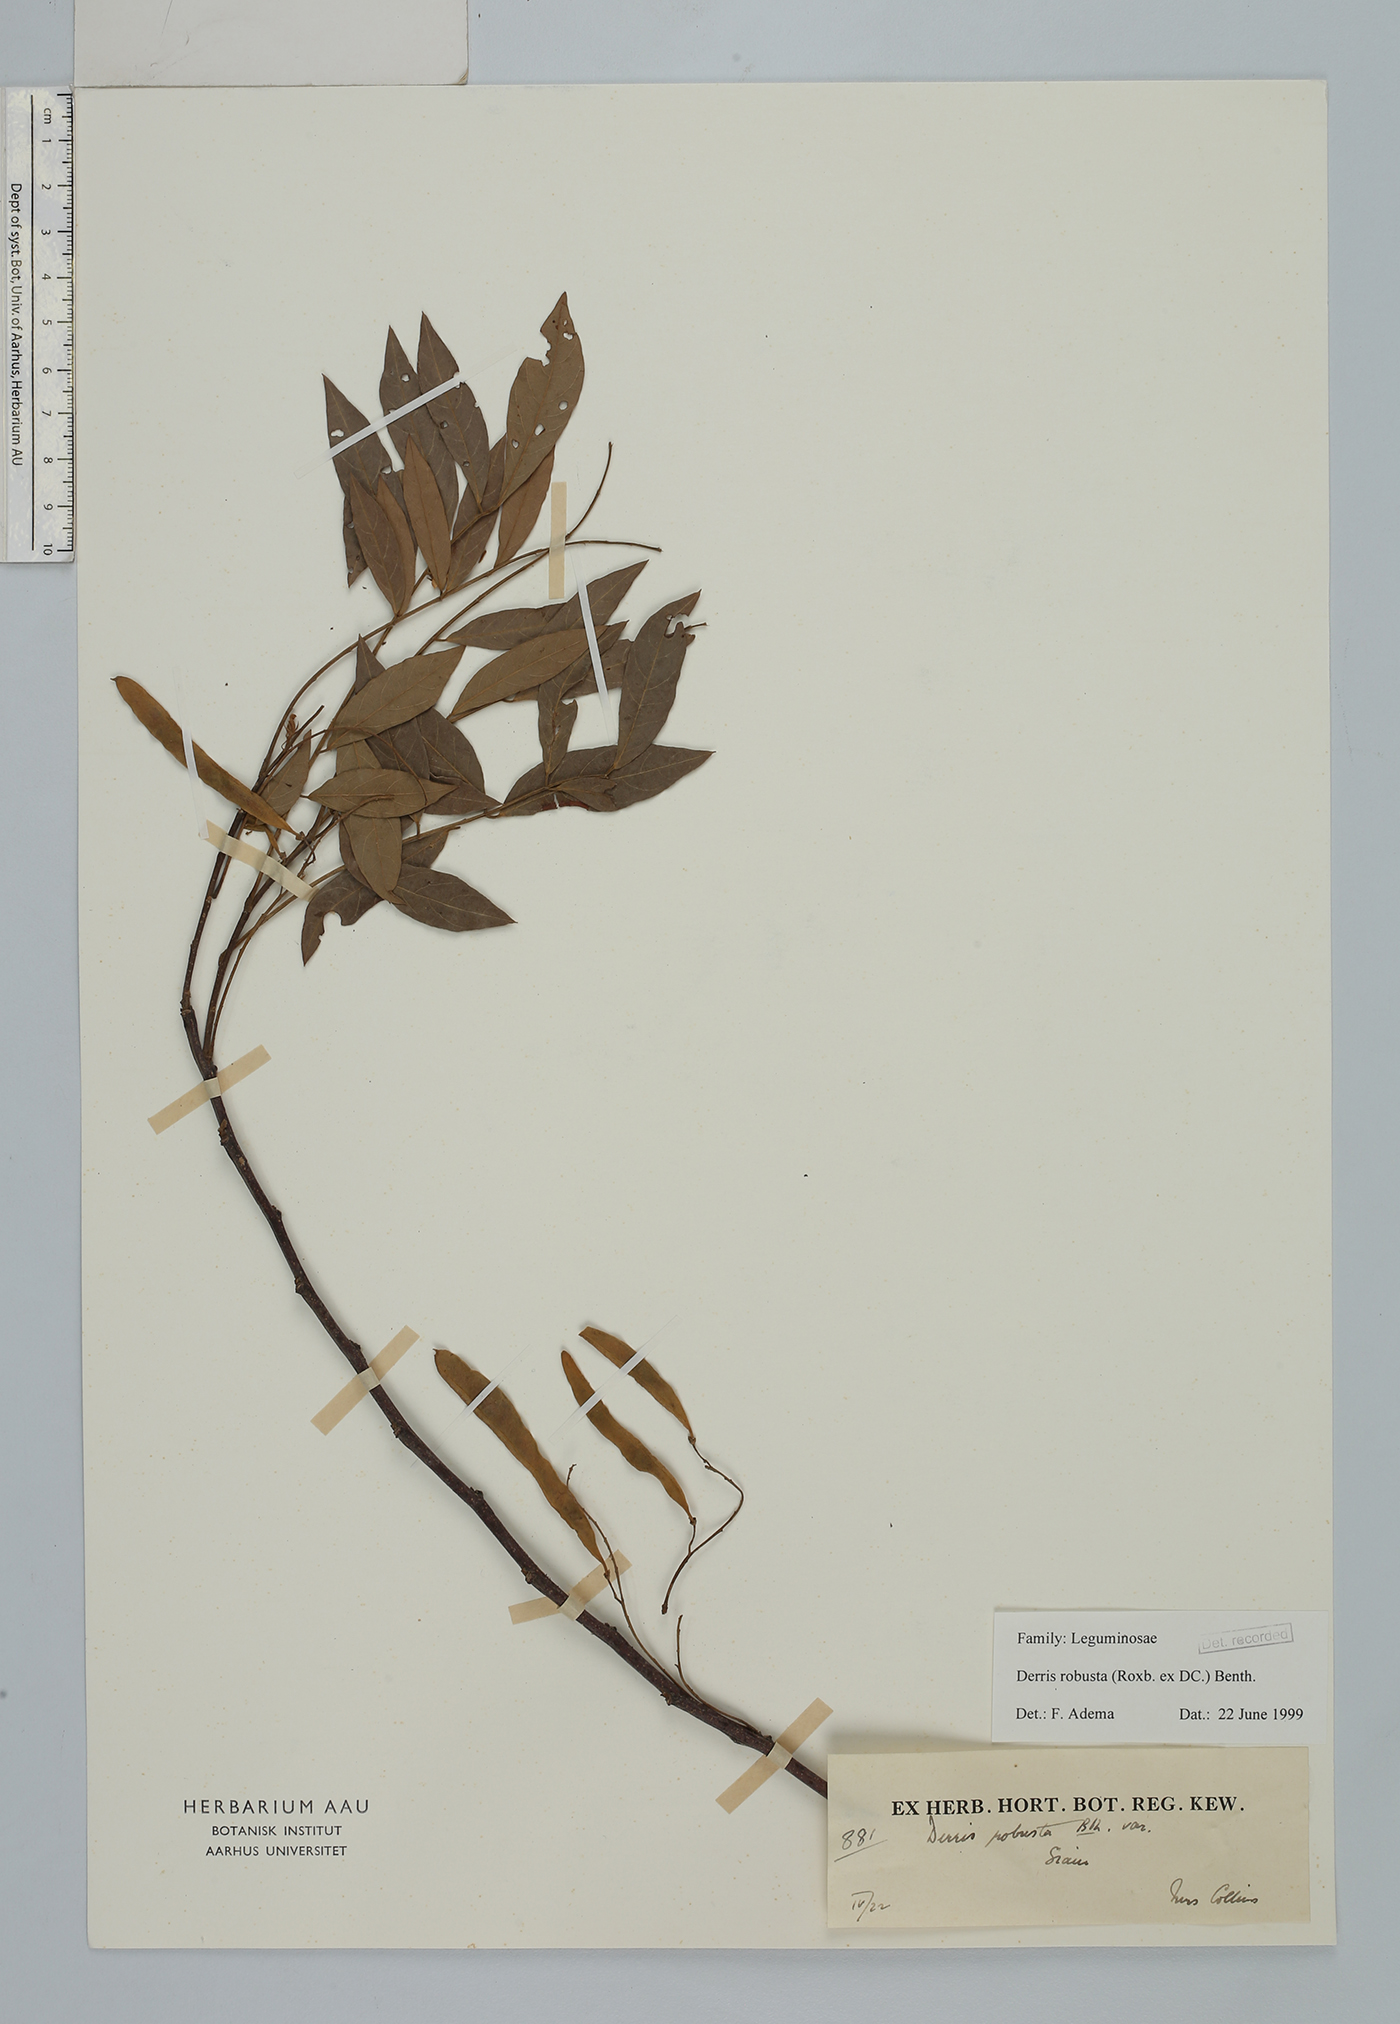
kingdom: Plantae
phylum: Tracheophyta
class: Magnoliopsida
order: Fabales
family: Fabaceae
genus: Brachypterum
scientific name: Brachypterum robustum
